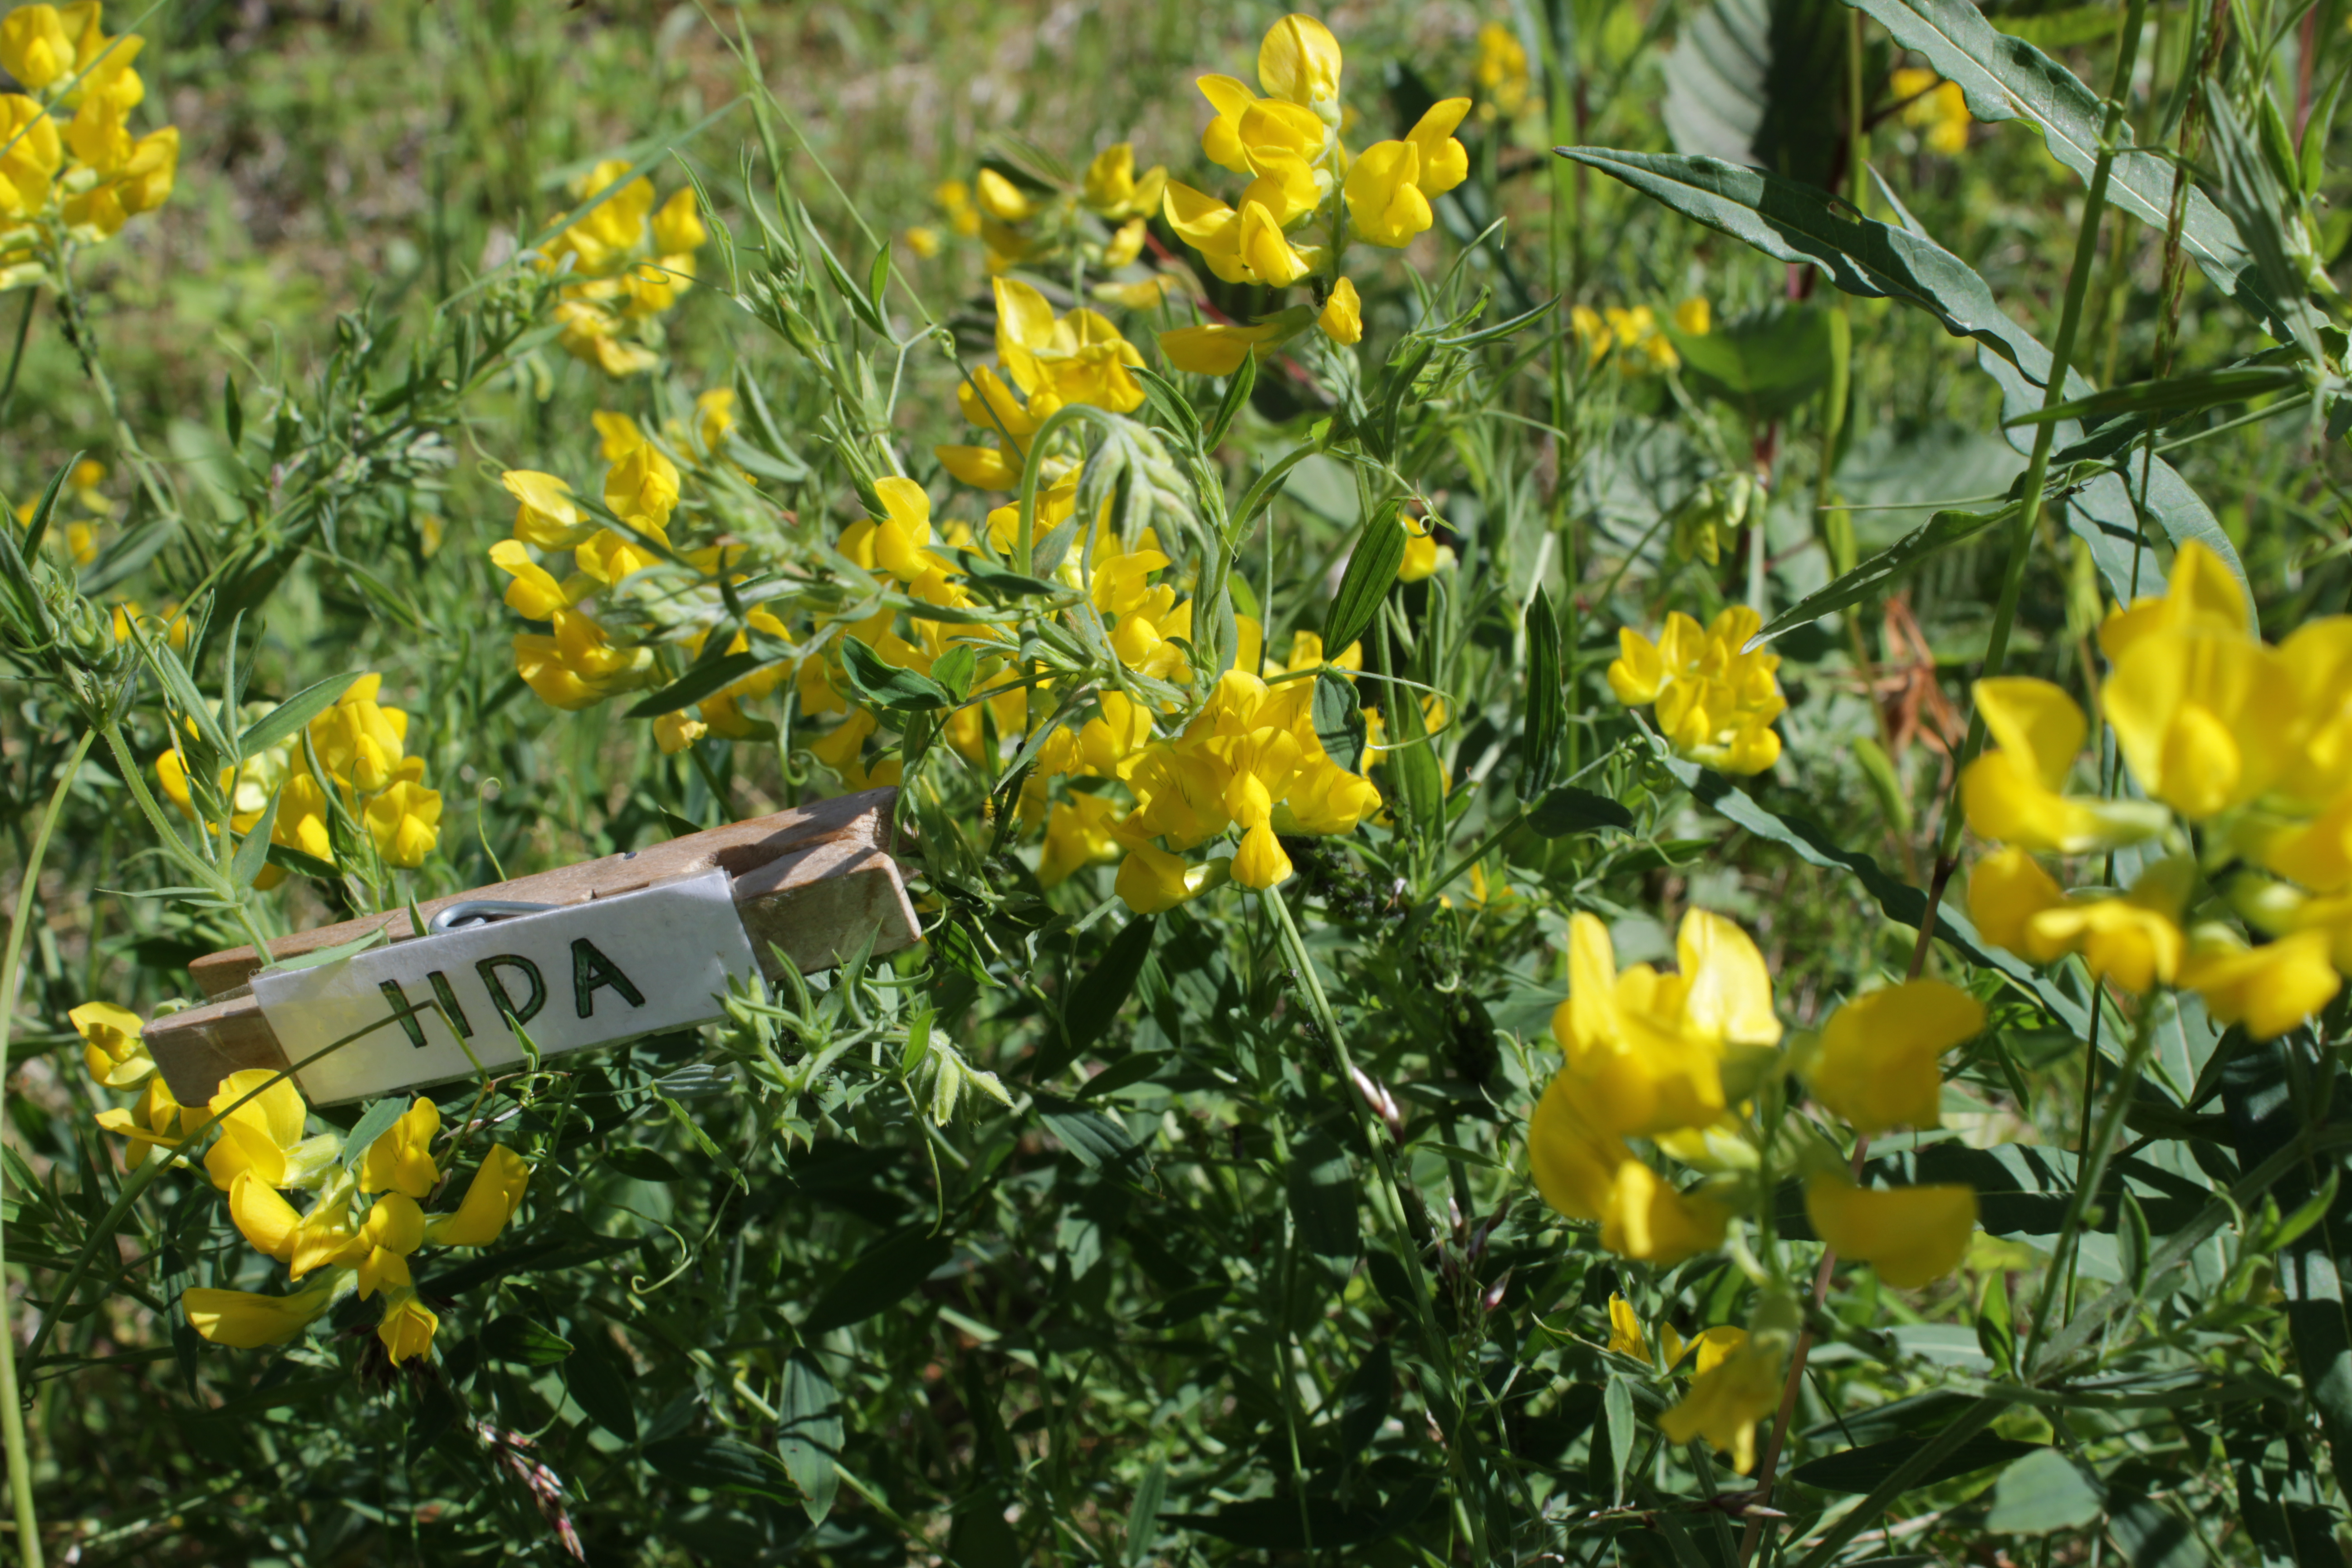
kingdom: Plantae
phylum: Tracheophyta
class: Magnoliopsida
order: Fabales
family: Fabaceae
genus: Lathyrus
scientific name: Lathyrus pratensis
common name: Meadow vetchling
